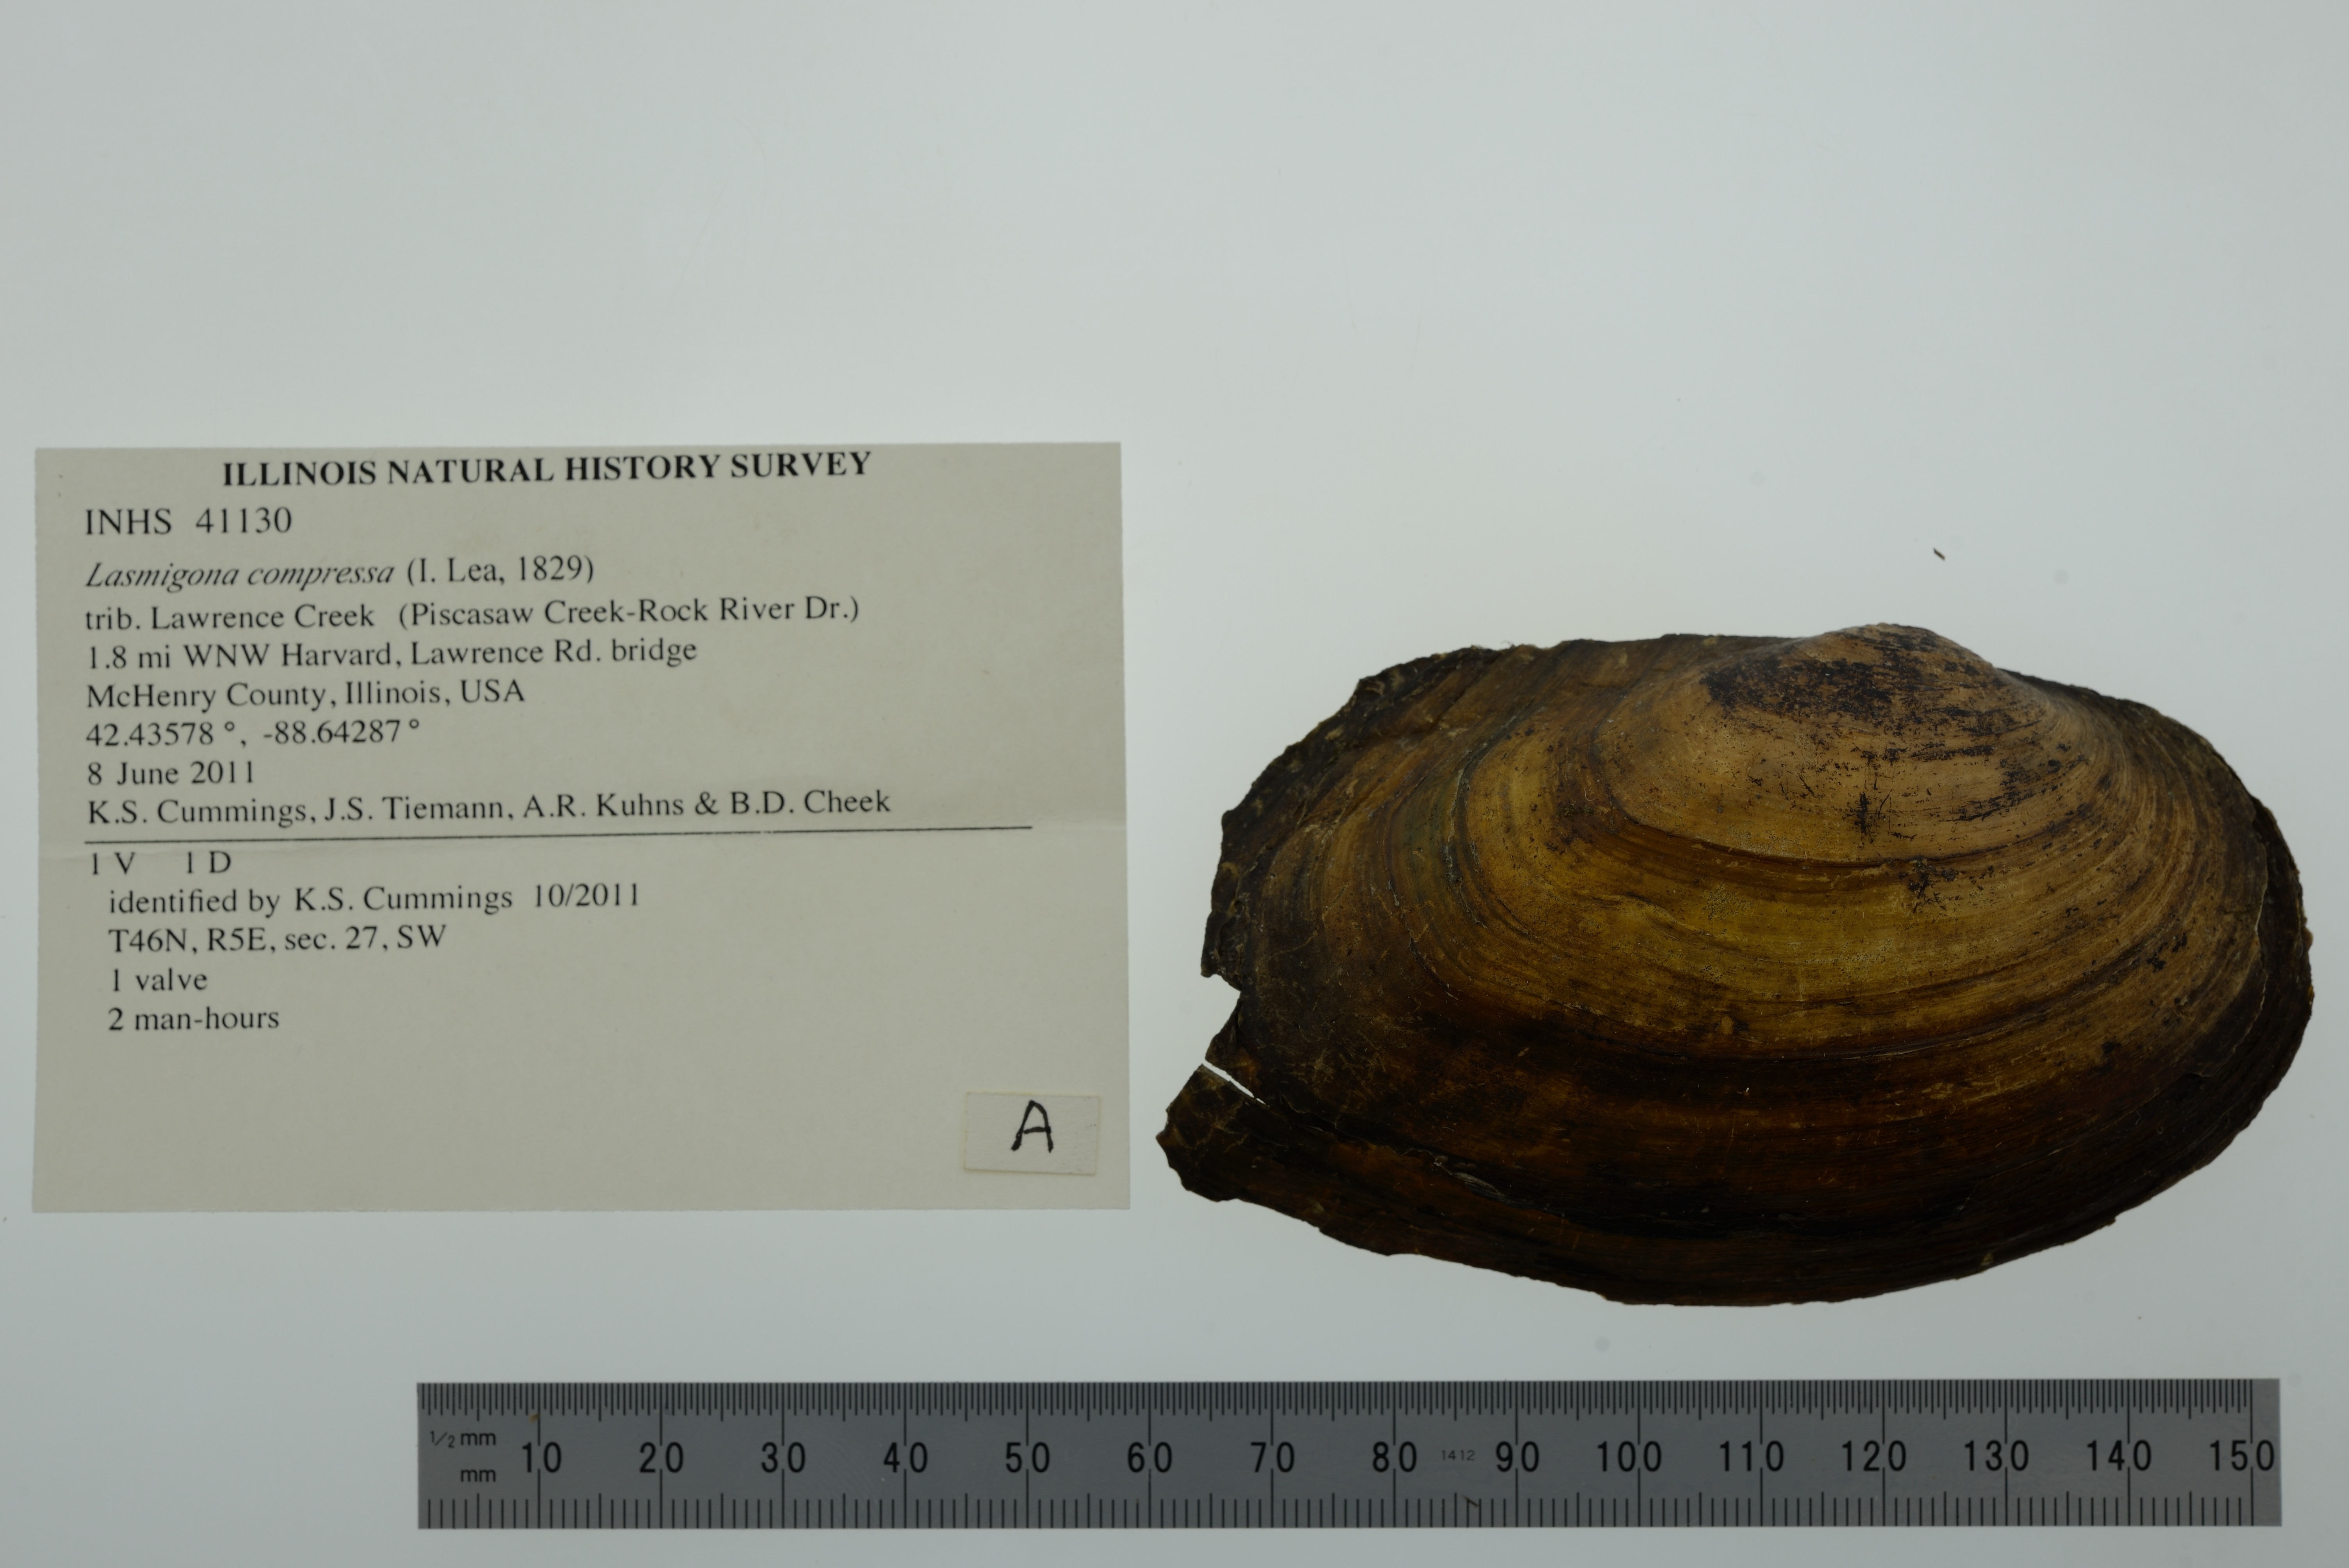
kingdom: Animalia
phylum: Mollusca
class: Bivalvia
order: Unionida
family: Unionidae
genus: Lasmigona
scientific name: Lasmigona compressa
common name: Creek heelsplitter
